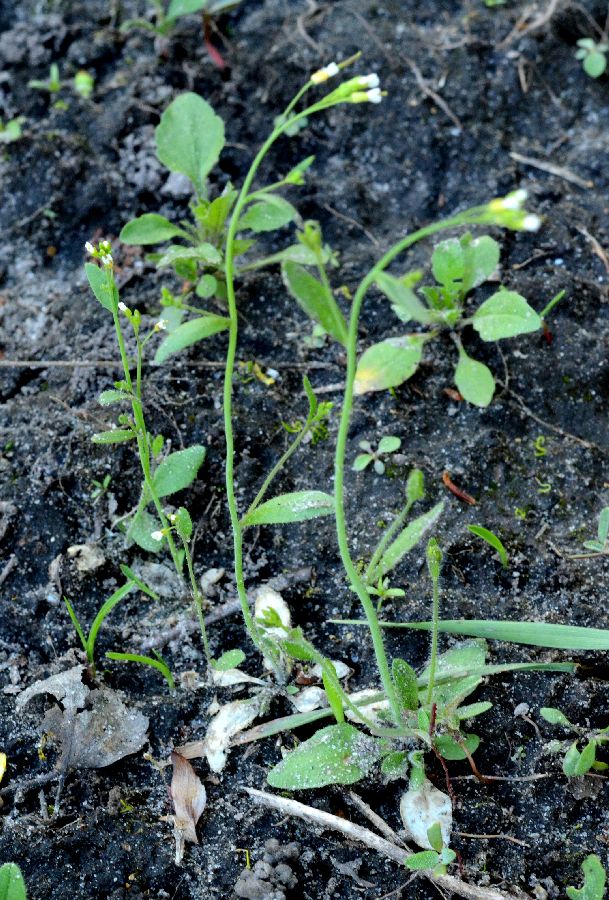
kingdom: Plantae
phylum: Tracheophyta
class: Magnoliopsida
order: Brassicales
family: Brassicaceae
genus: Arabidopsis
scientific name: Arabidopsis thaliana
